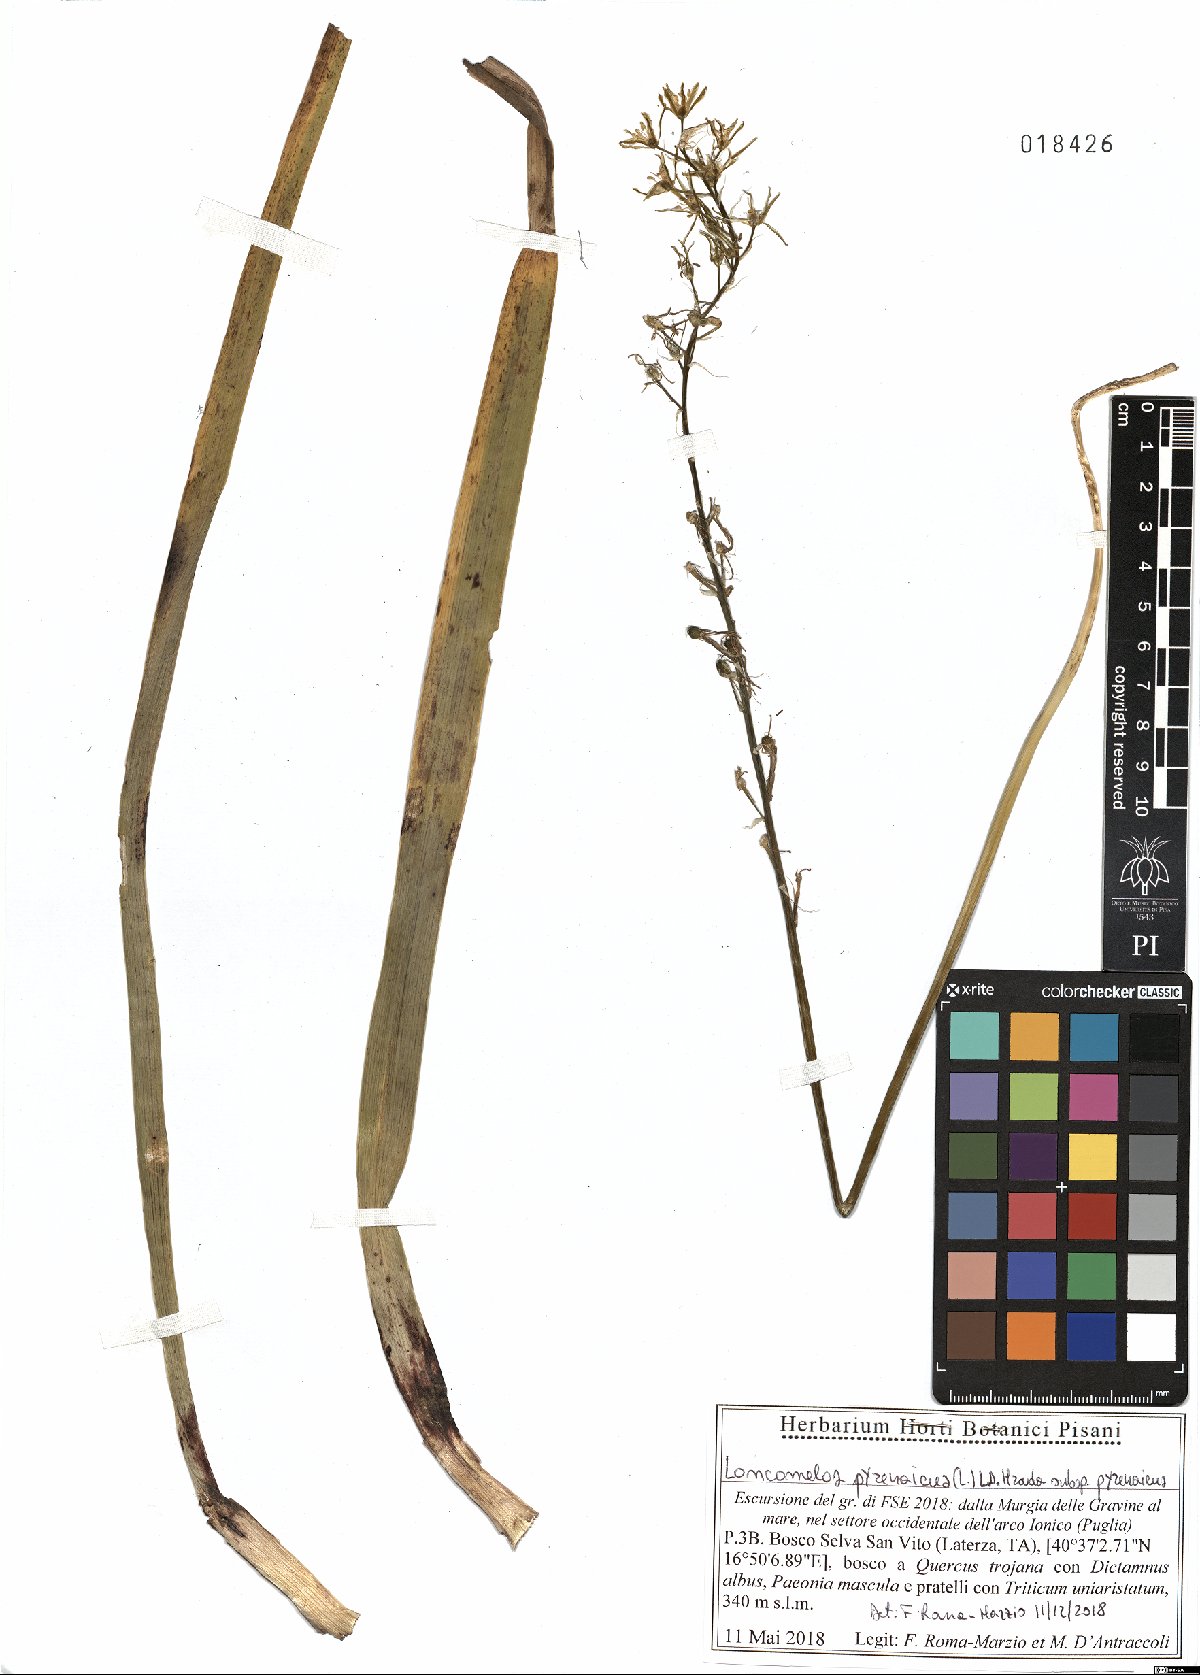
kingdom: Plantae
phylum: Tracheophyta
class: Liliopsida
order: Asparagales
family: Asparagaceae
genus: Ornithogalum
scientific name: Ornithogalum pyrenaicum
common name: Spiked star-of-bethlehem
